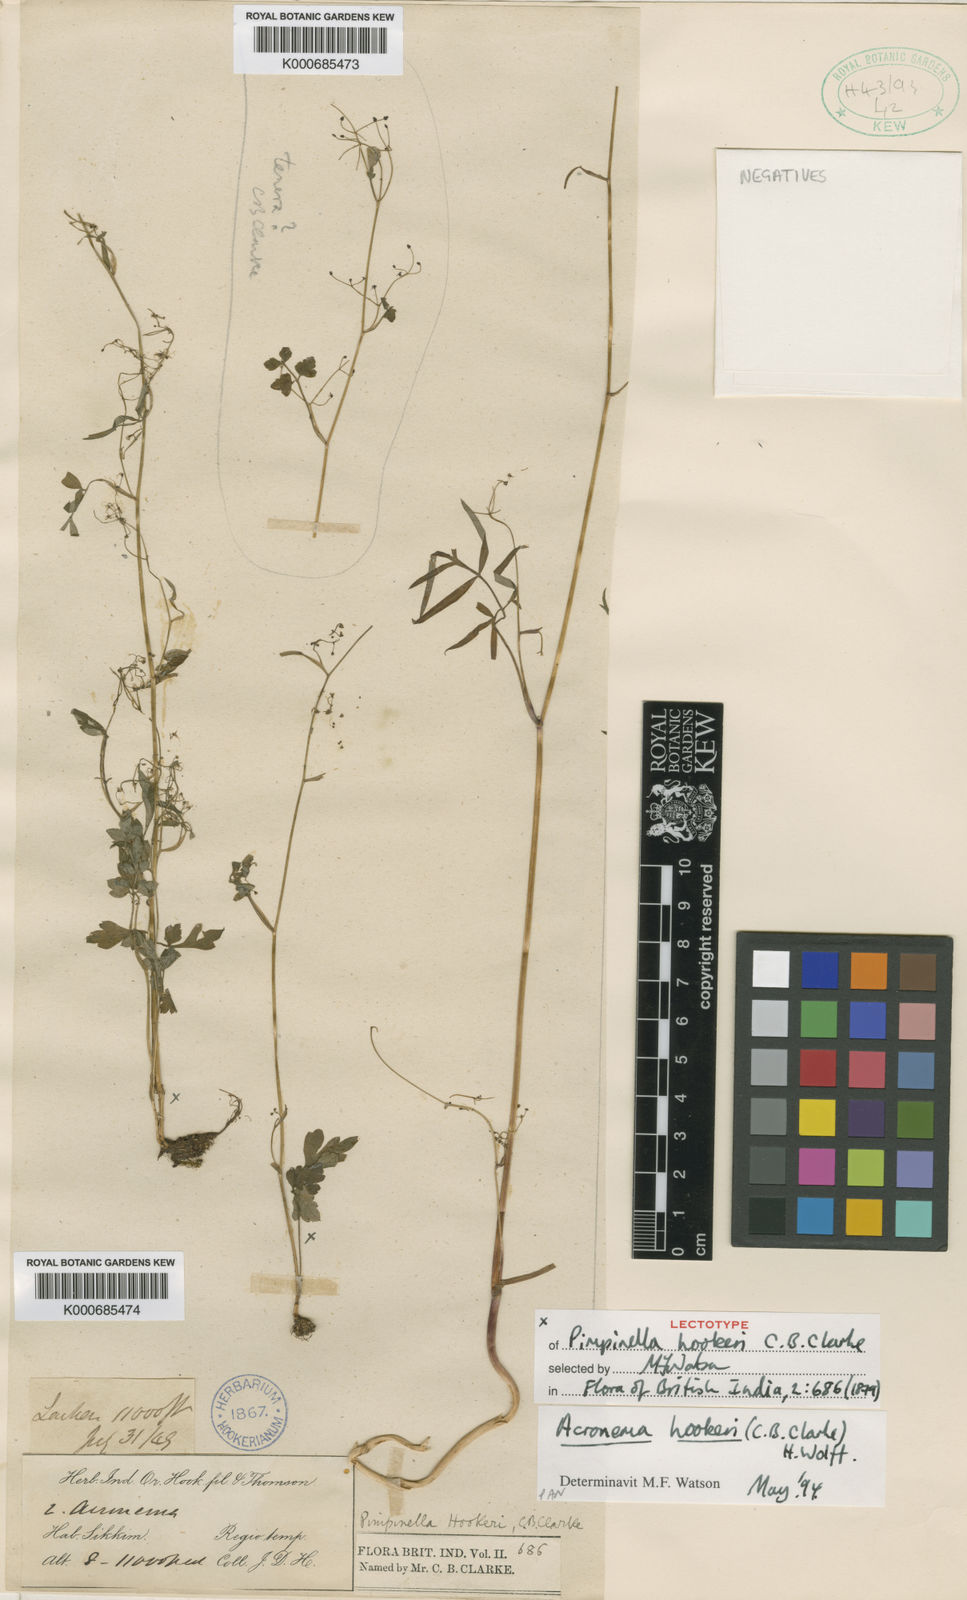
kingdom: Plantae
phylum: Tracheophyta
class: Magnoliopsida
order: Apiales
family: Apiaceae
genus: Acronema
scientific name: Acronema hookeri
